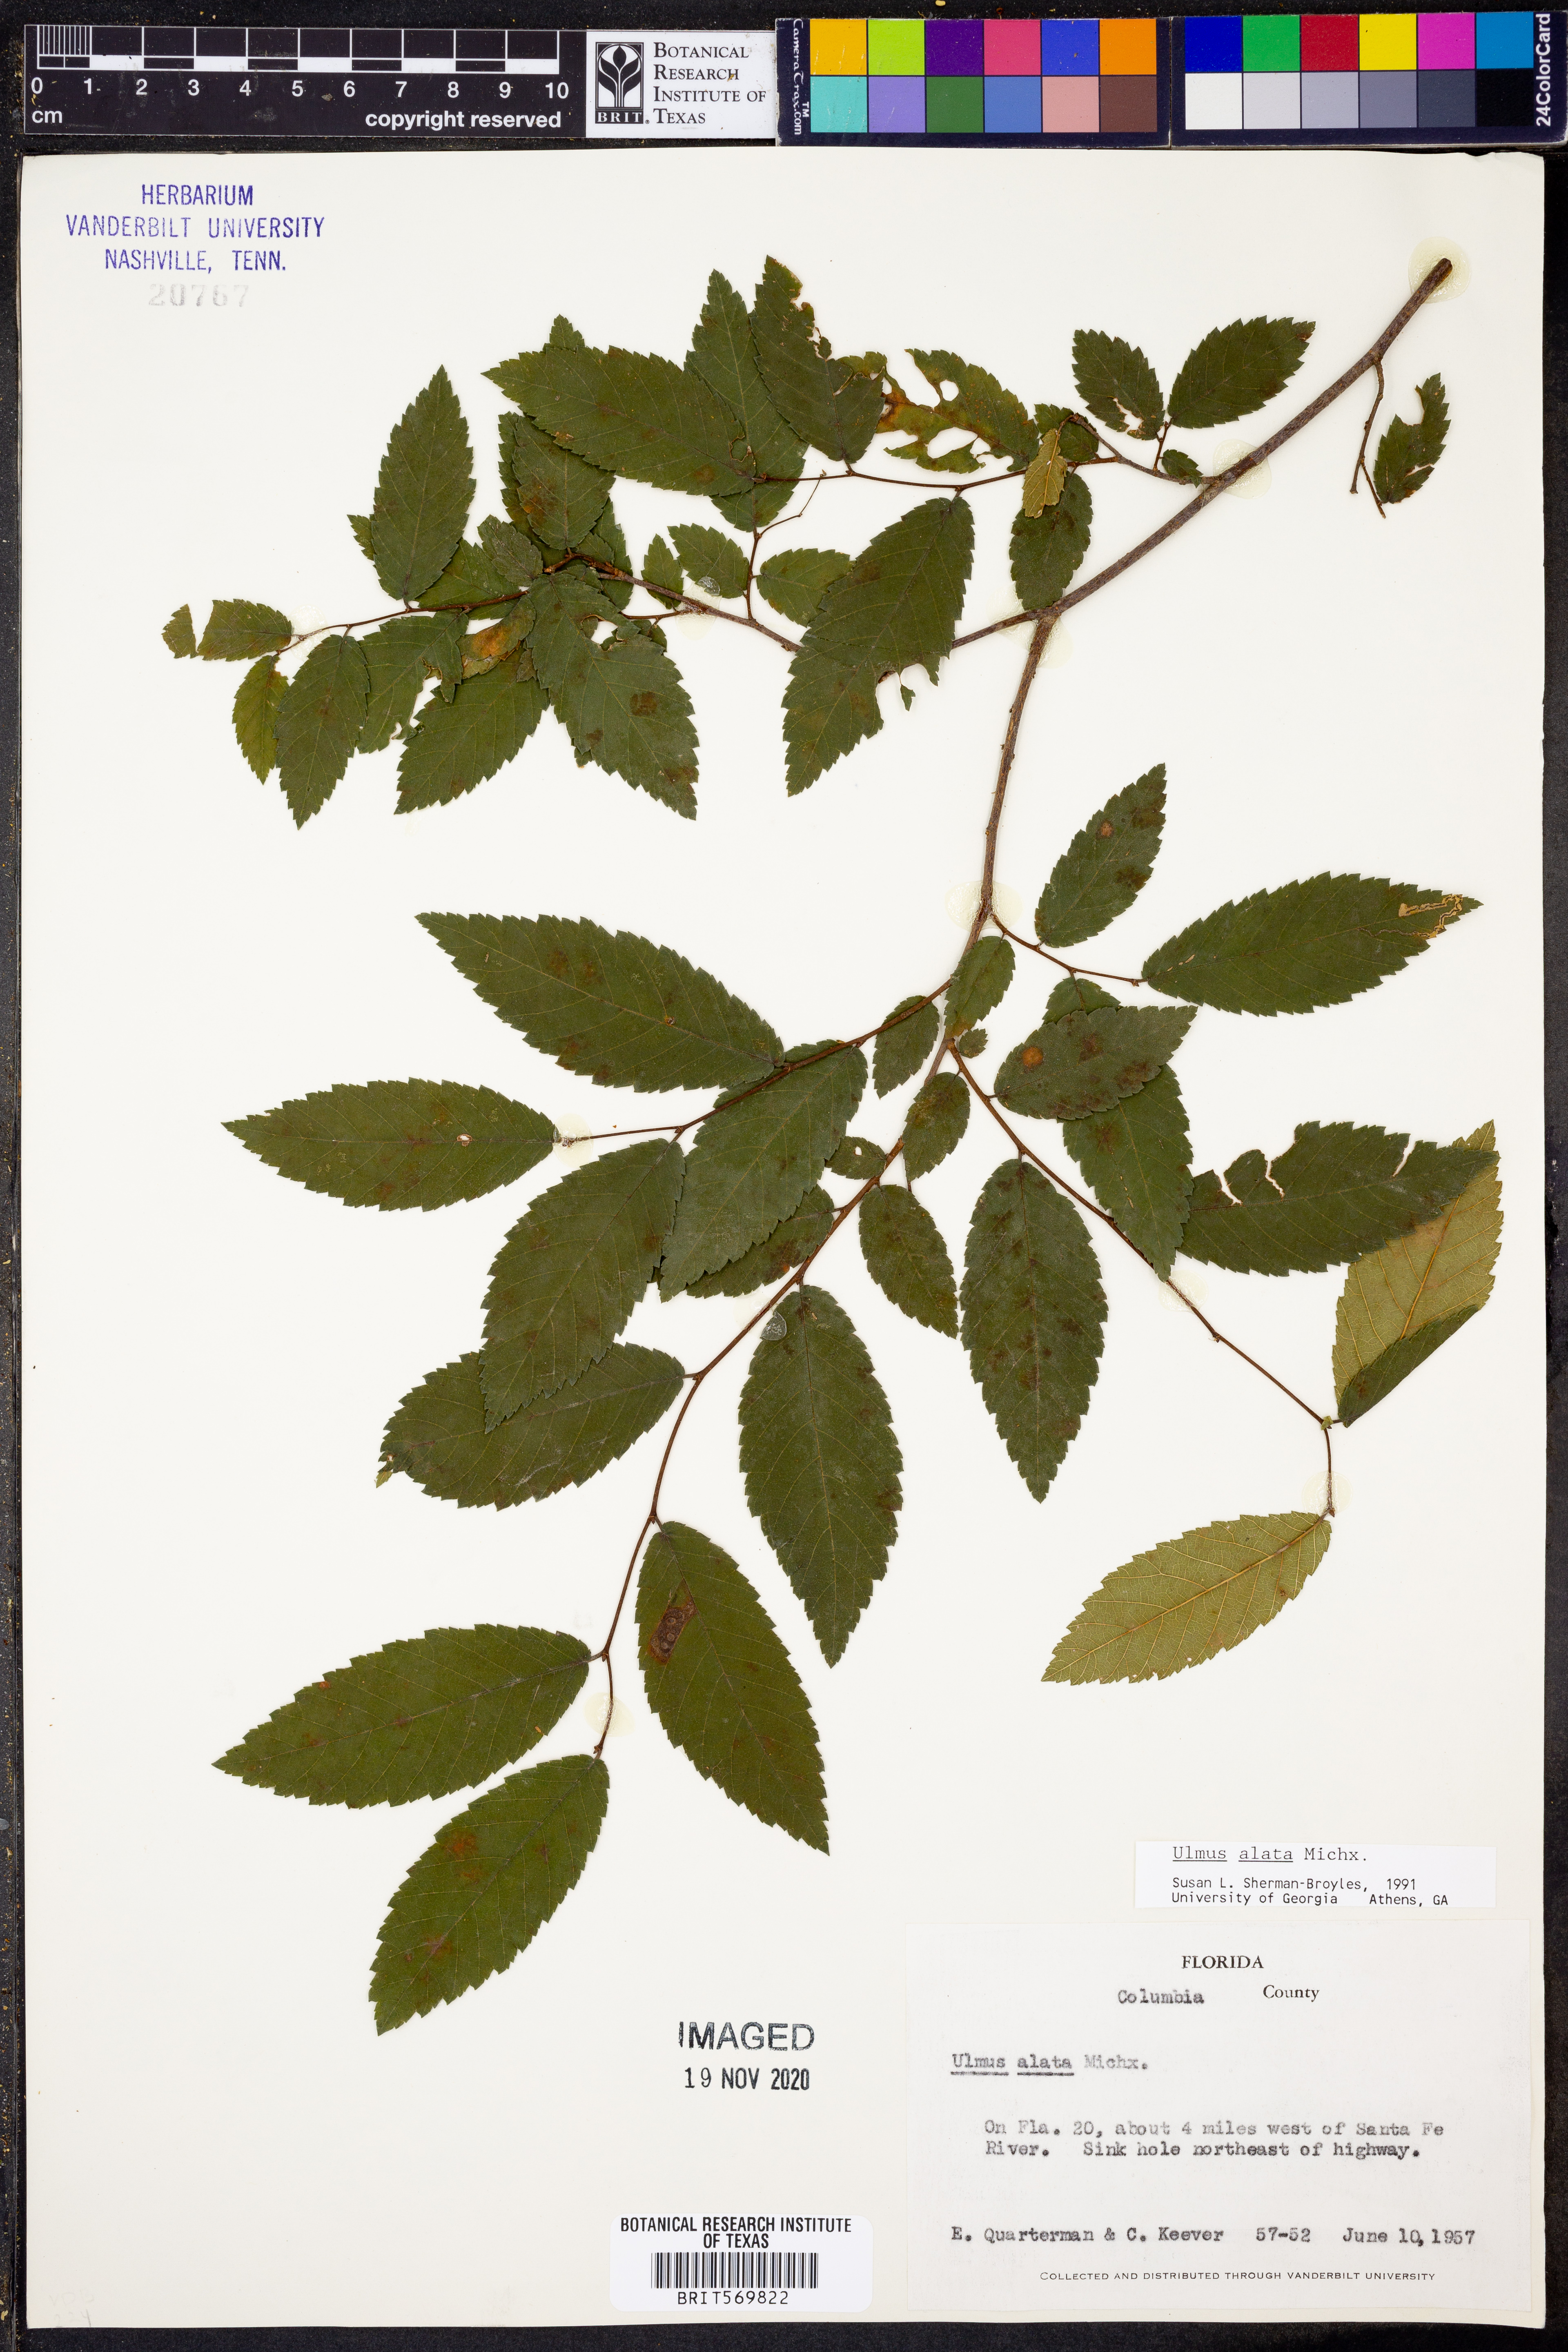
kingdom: Plantae
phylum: Tracheophyta
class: Magnoliopsida
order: Rosales
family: Ulmaceae
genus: Ulmus
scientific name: Ulmus alata
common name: Winged elm
